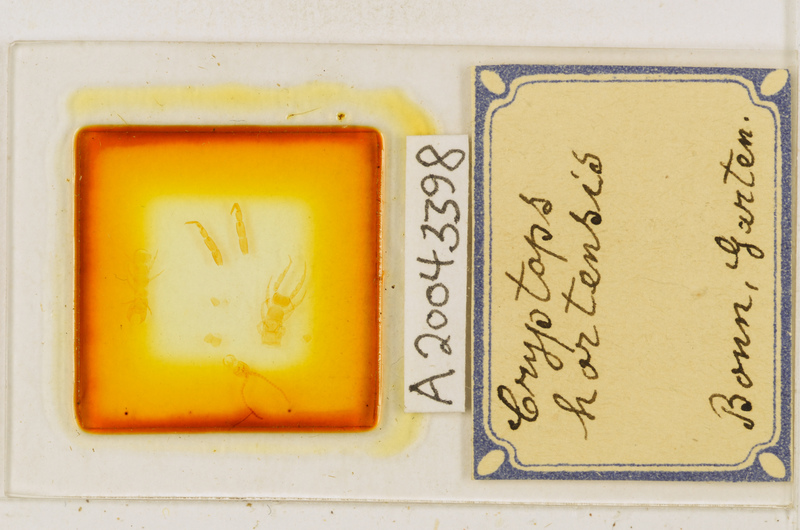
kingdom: Animalia
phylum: Arthropoda
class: Chilopoda
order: Scolopendromorpha
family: Cryptopidae
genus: Cryptops
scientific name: Cryptops hortensis
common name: Centipede
